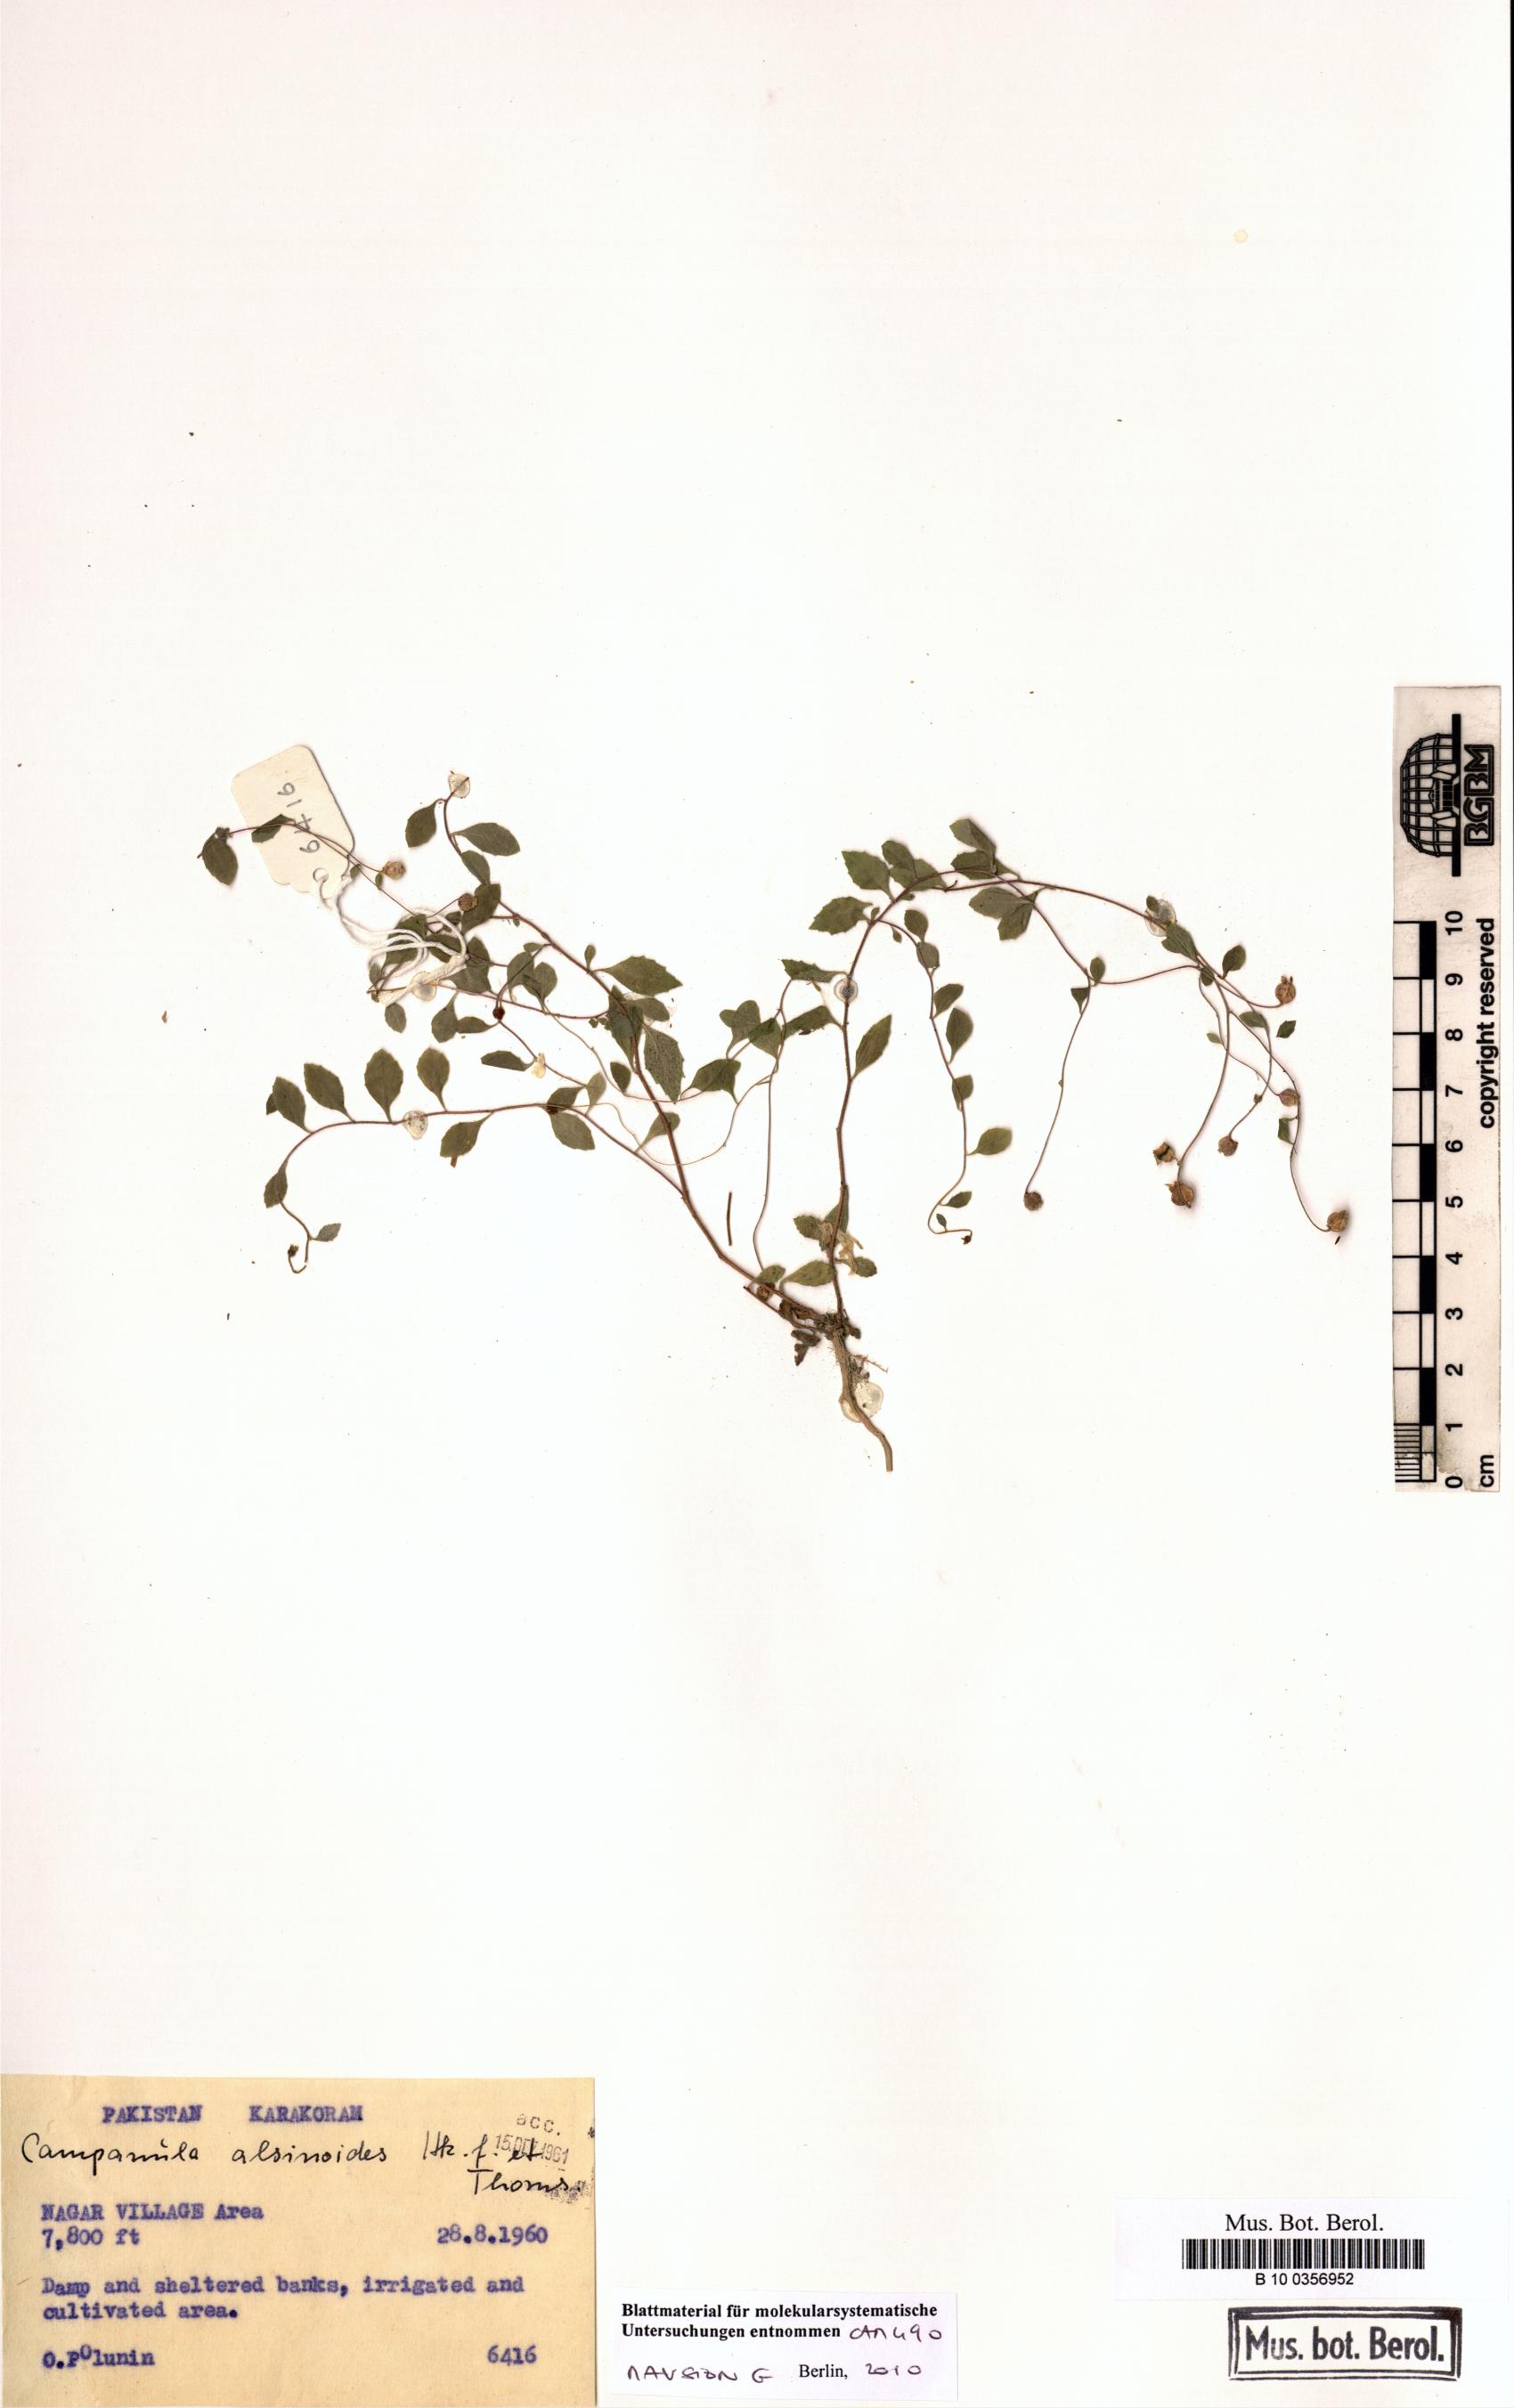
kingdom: Plantae
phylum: Tracheophyta
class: Magnoliopsida
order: Asterales
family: Campanulaceae
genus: Campanula
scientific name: Campanula alsinoides
